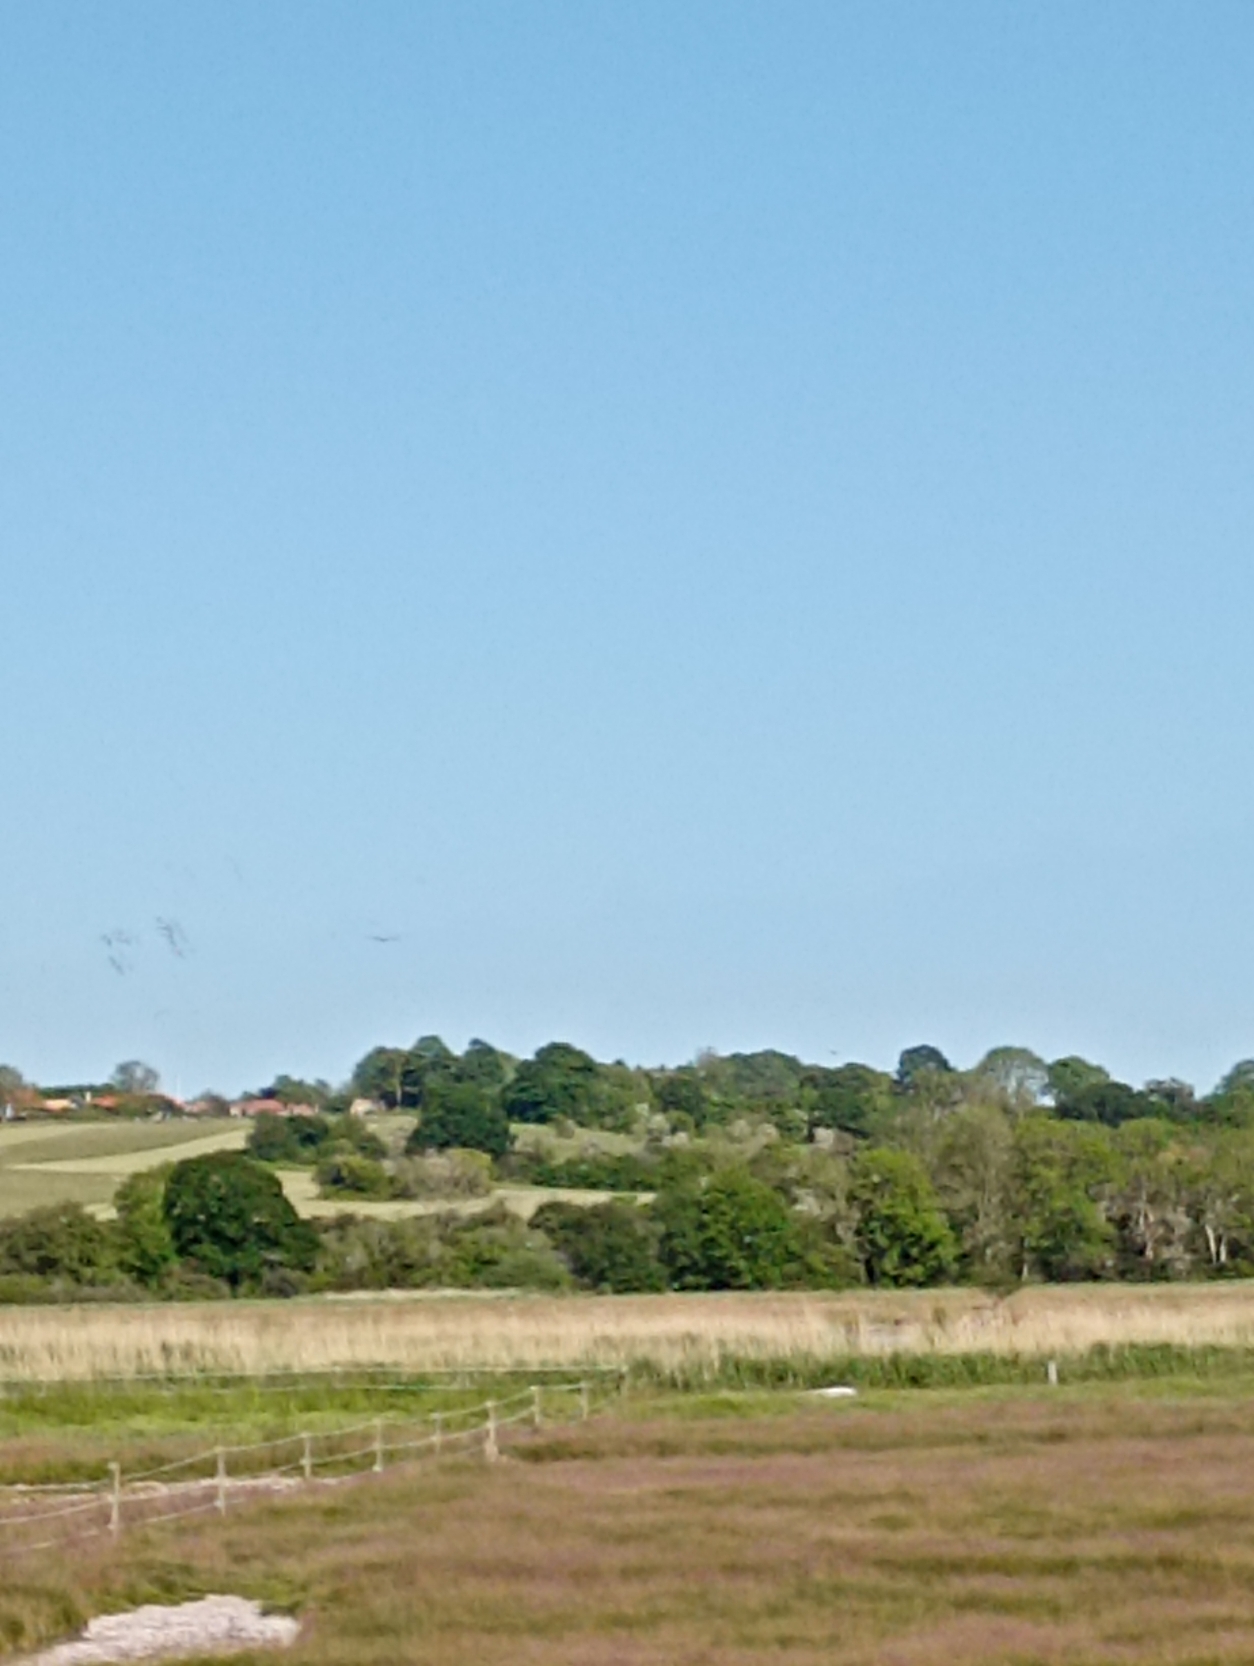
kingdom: Animalia
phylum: Chordata
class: Aves
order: Accipitriformes
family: Accipitridae
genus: Haliaeetus
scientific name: Haliaeetus albicilla
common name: Havørn
